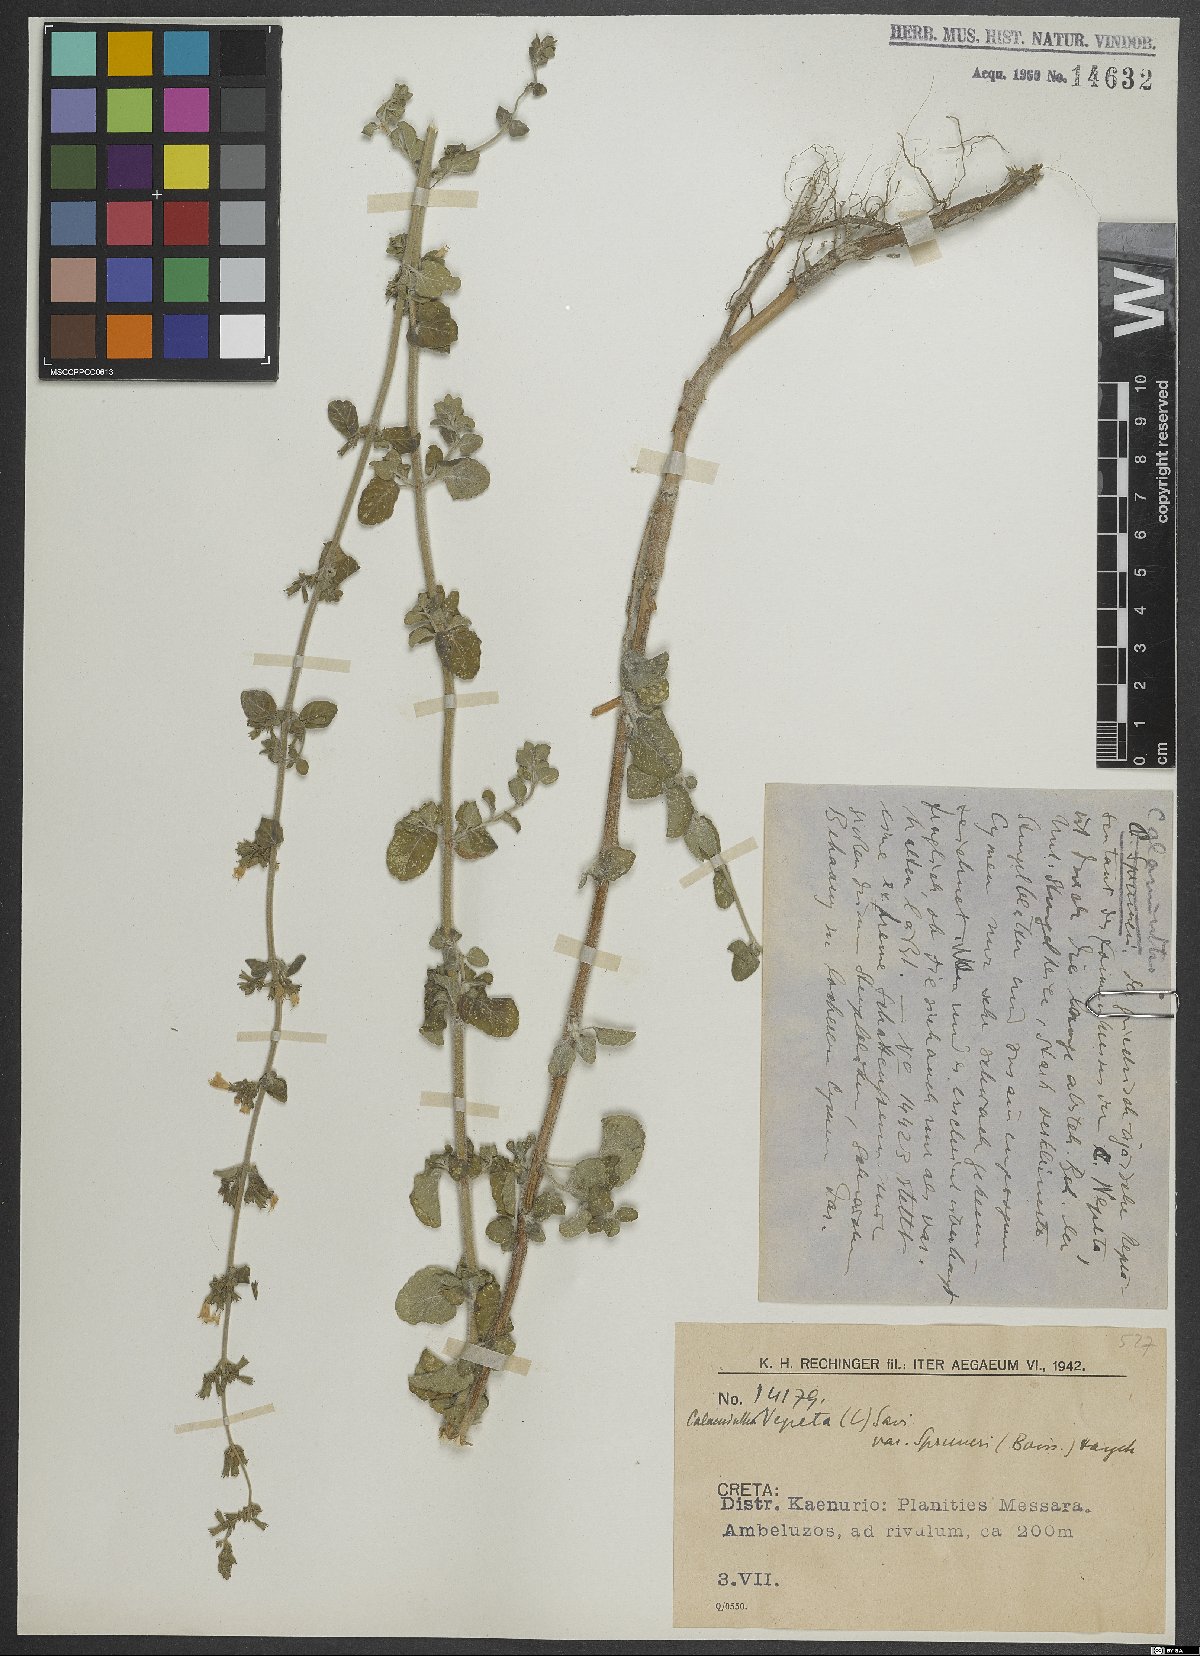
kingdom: Plantae
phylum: Tracheophyta
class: Magnoliopsida
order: Lamiales
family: Lamiaceae
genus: Clinopodium
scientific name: Clinopodium nepeta
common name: Lesser calamint
